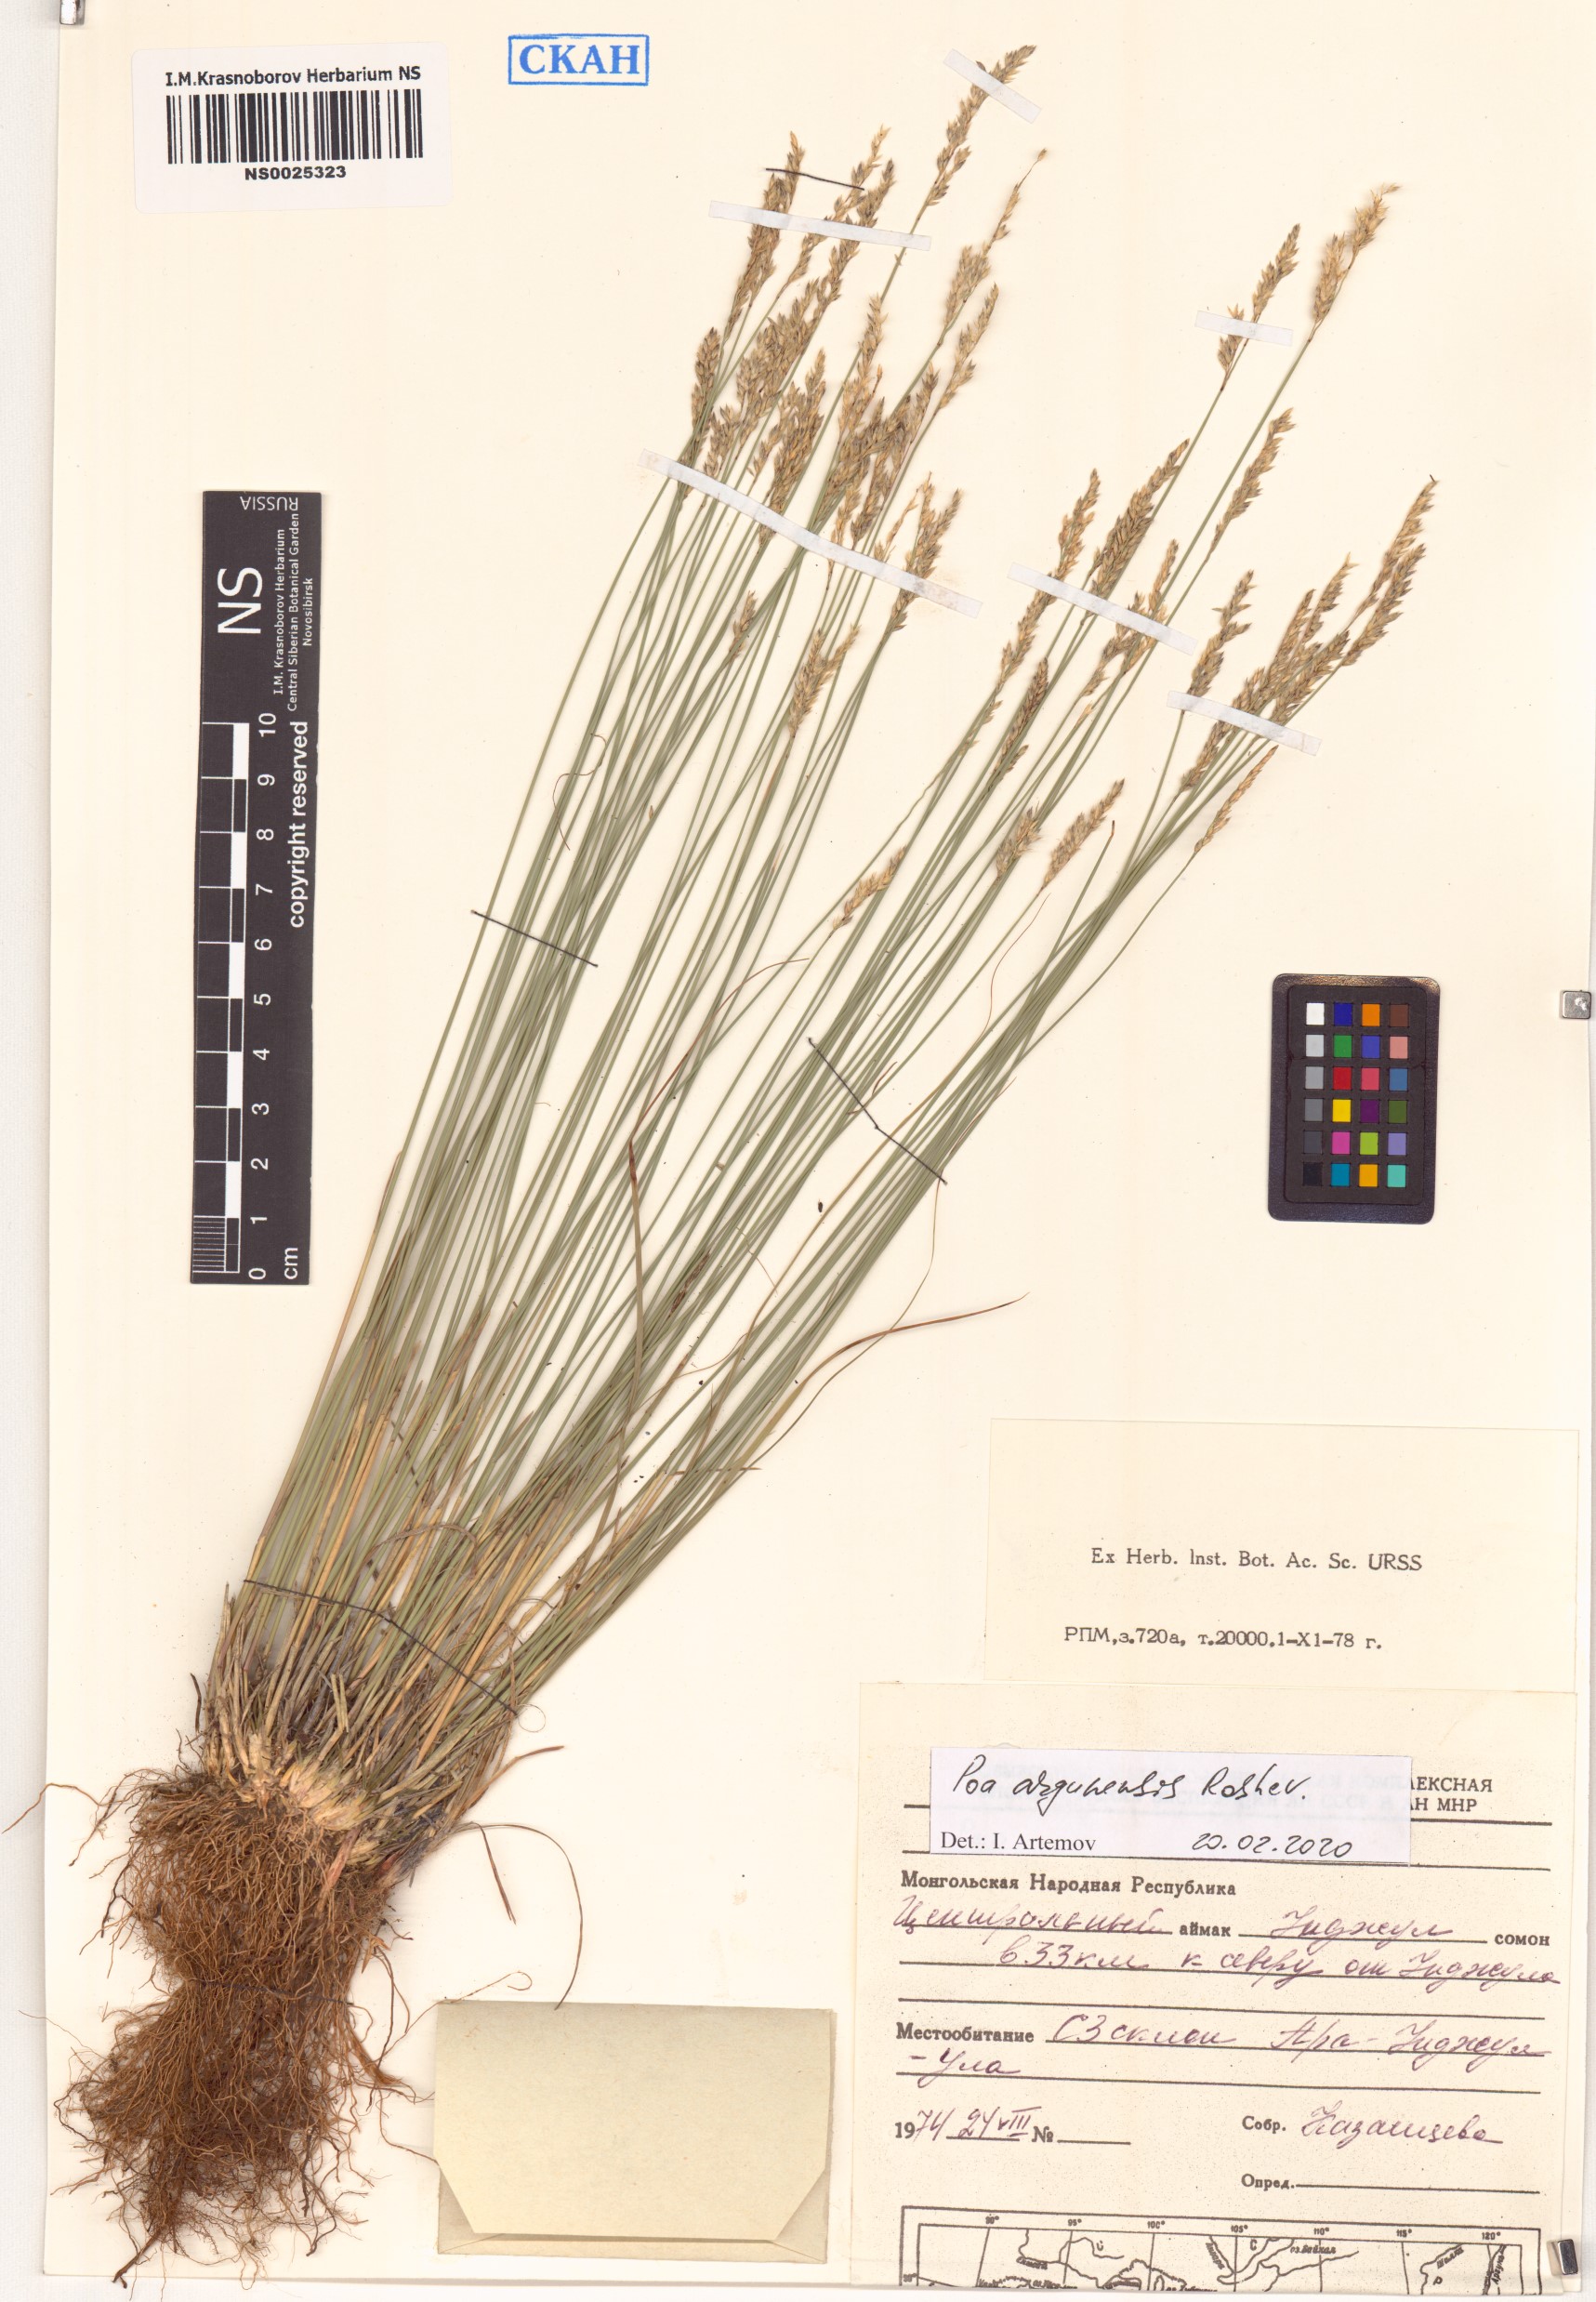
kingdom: Plantae
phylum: Tracheophyta
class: Liliopsida
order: Poales
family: Poaceae
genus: Poa
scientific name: Poa attenuata
